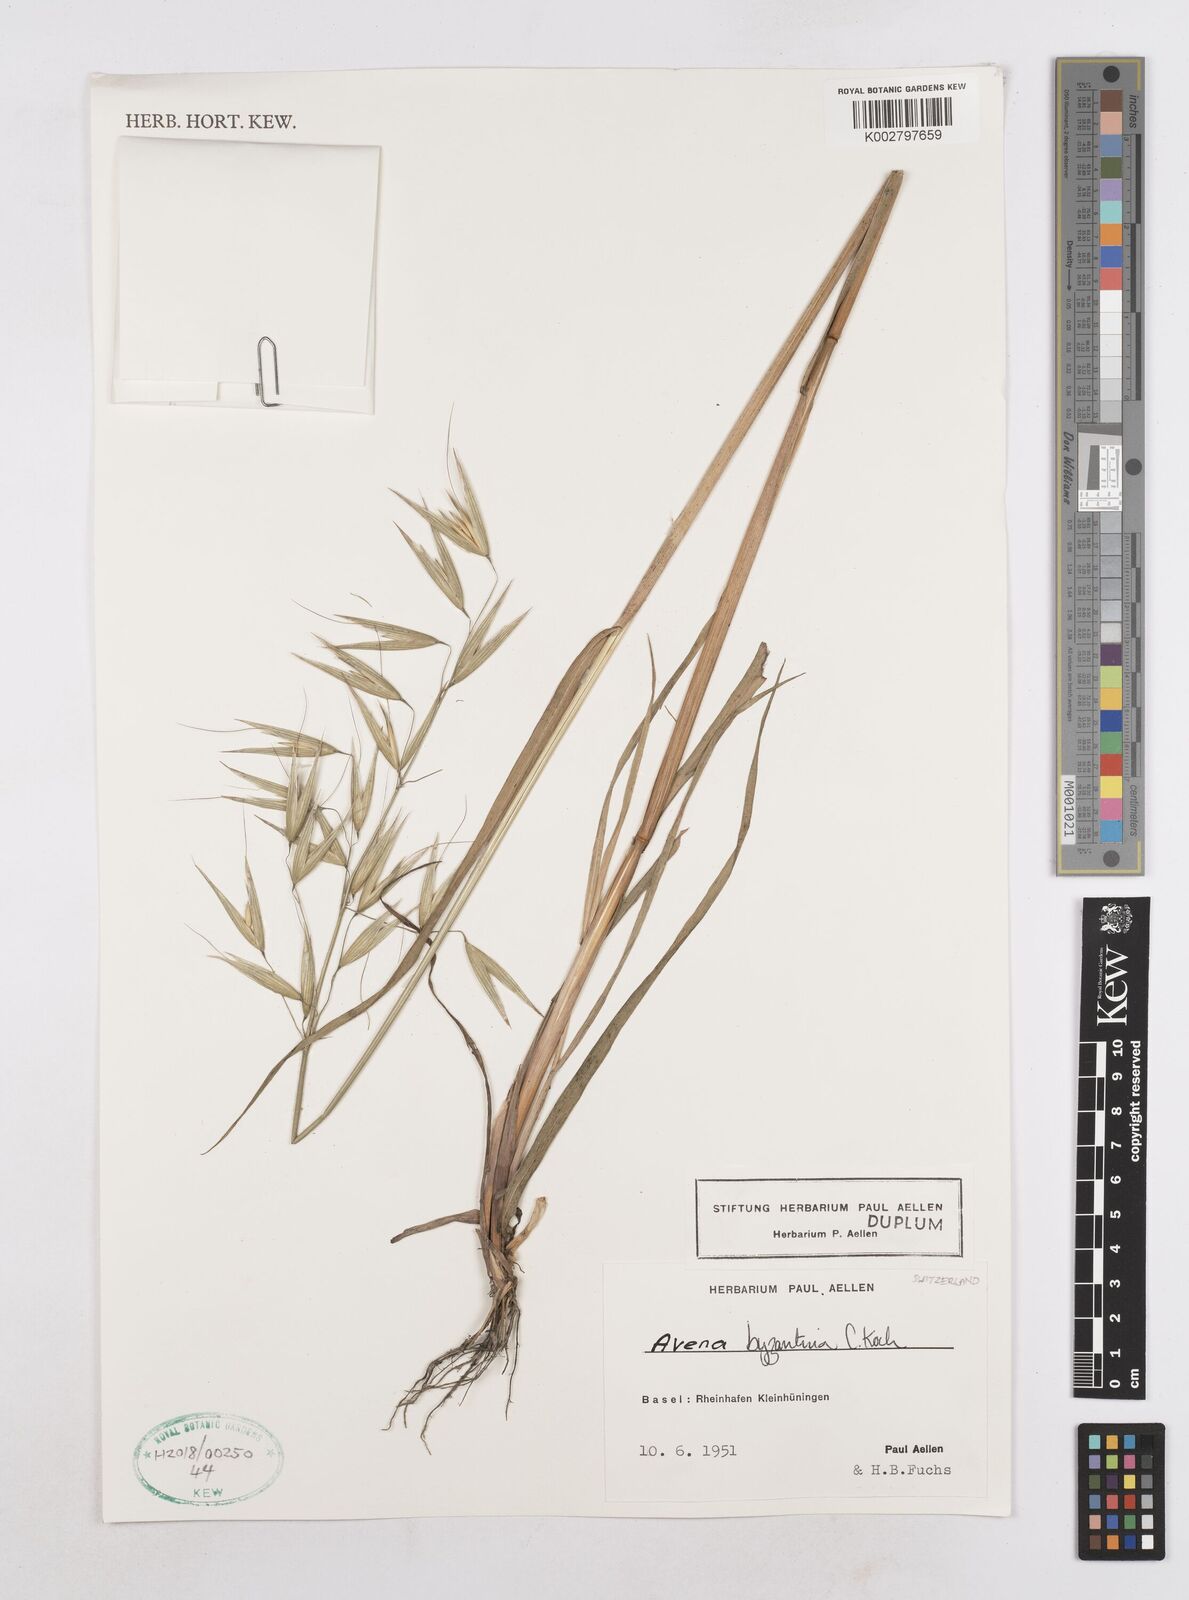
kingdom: Plantae
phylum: Tracheophyta
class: Liliopsida
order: Poales
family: Poaceae
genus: Avena
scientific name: Avena byzantina
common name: Algerian oat
